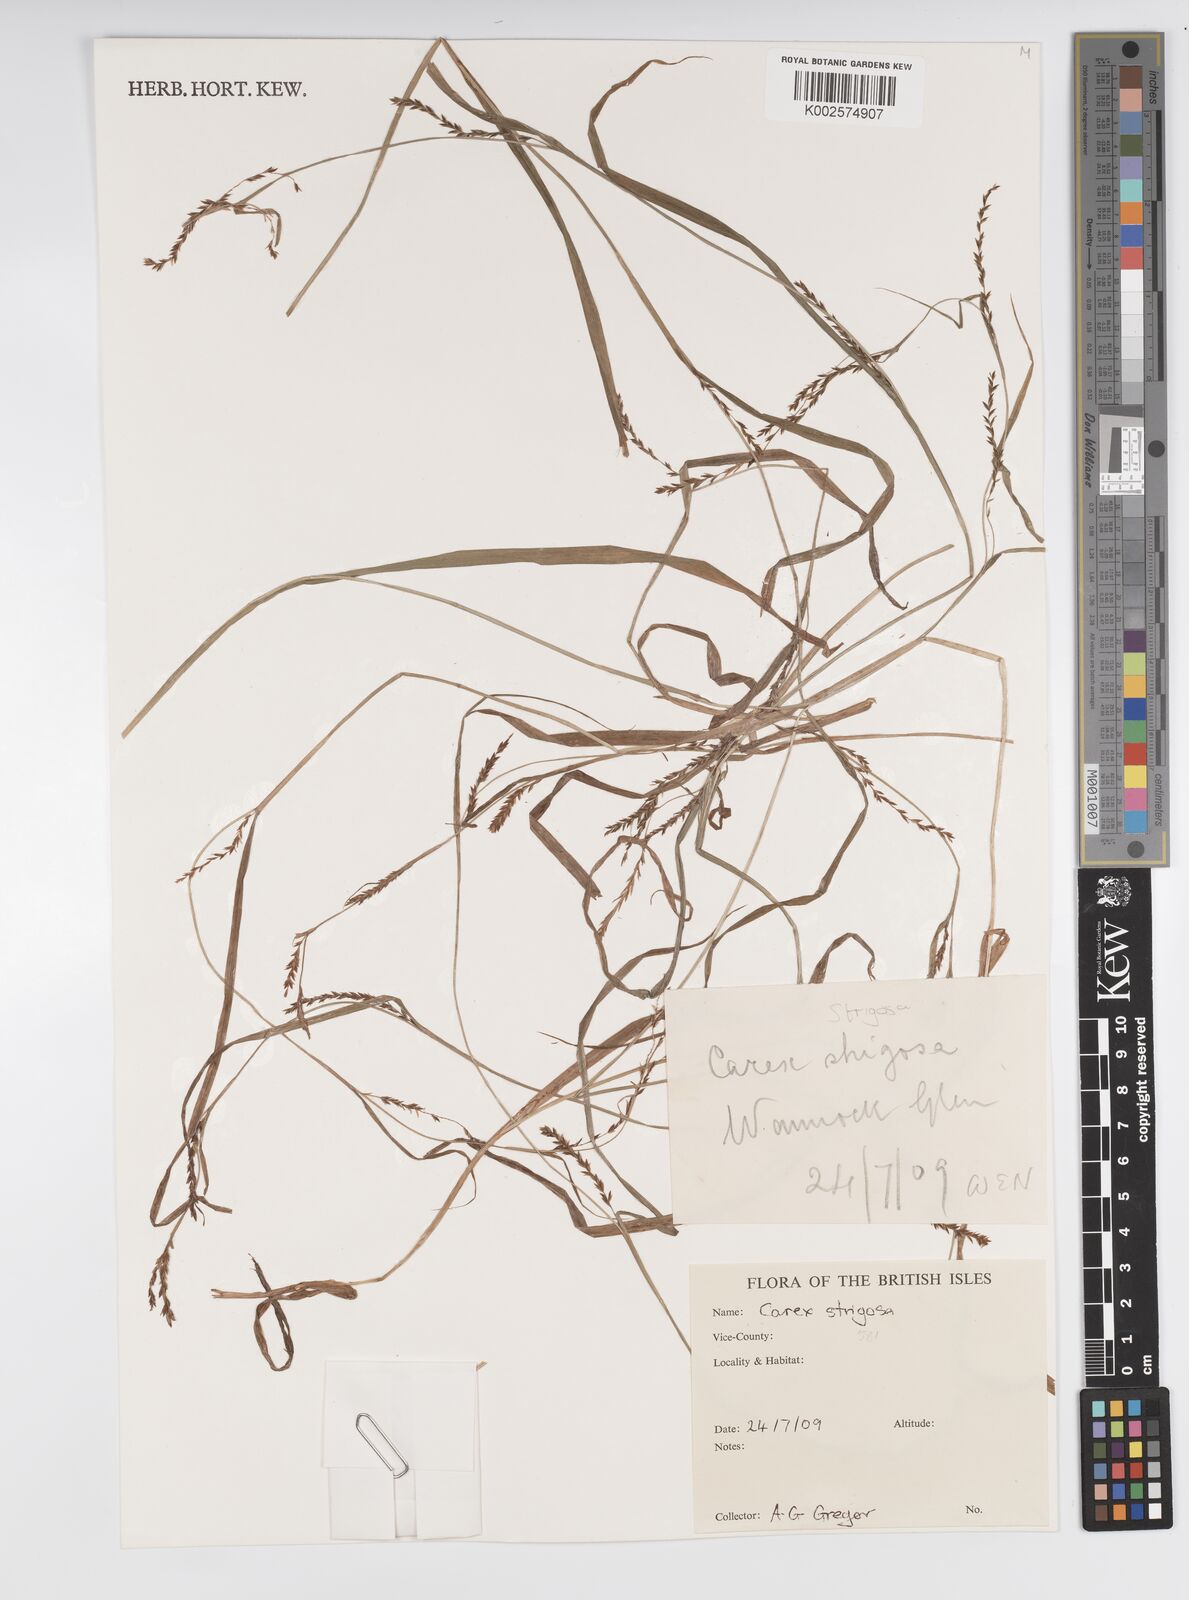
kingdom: Plantae
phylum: Tracheophyta
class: Liliopsida
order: Poales
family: Cyperaceae
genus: Carex
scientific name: Carex strigosa
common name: Thin-spiked wood-sedge
